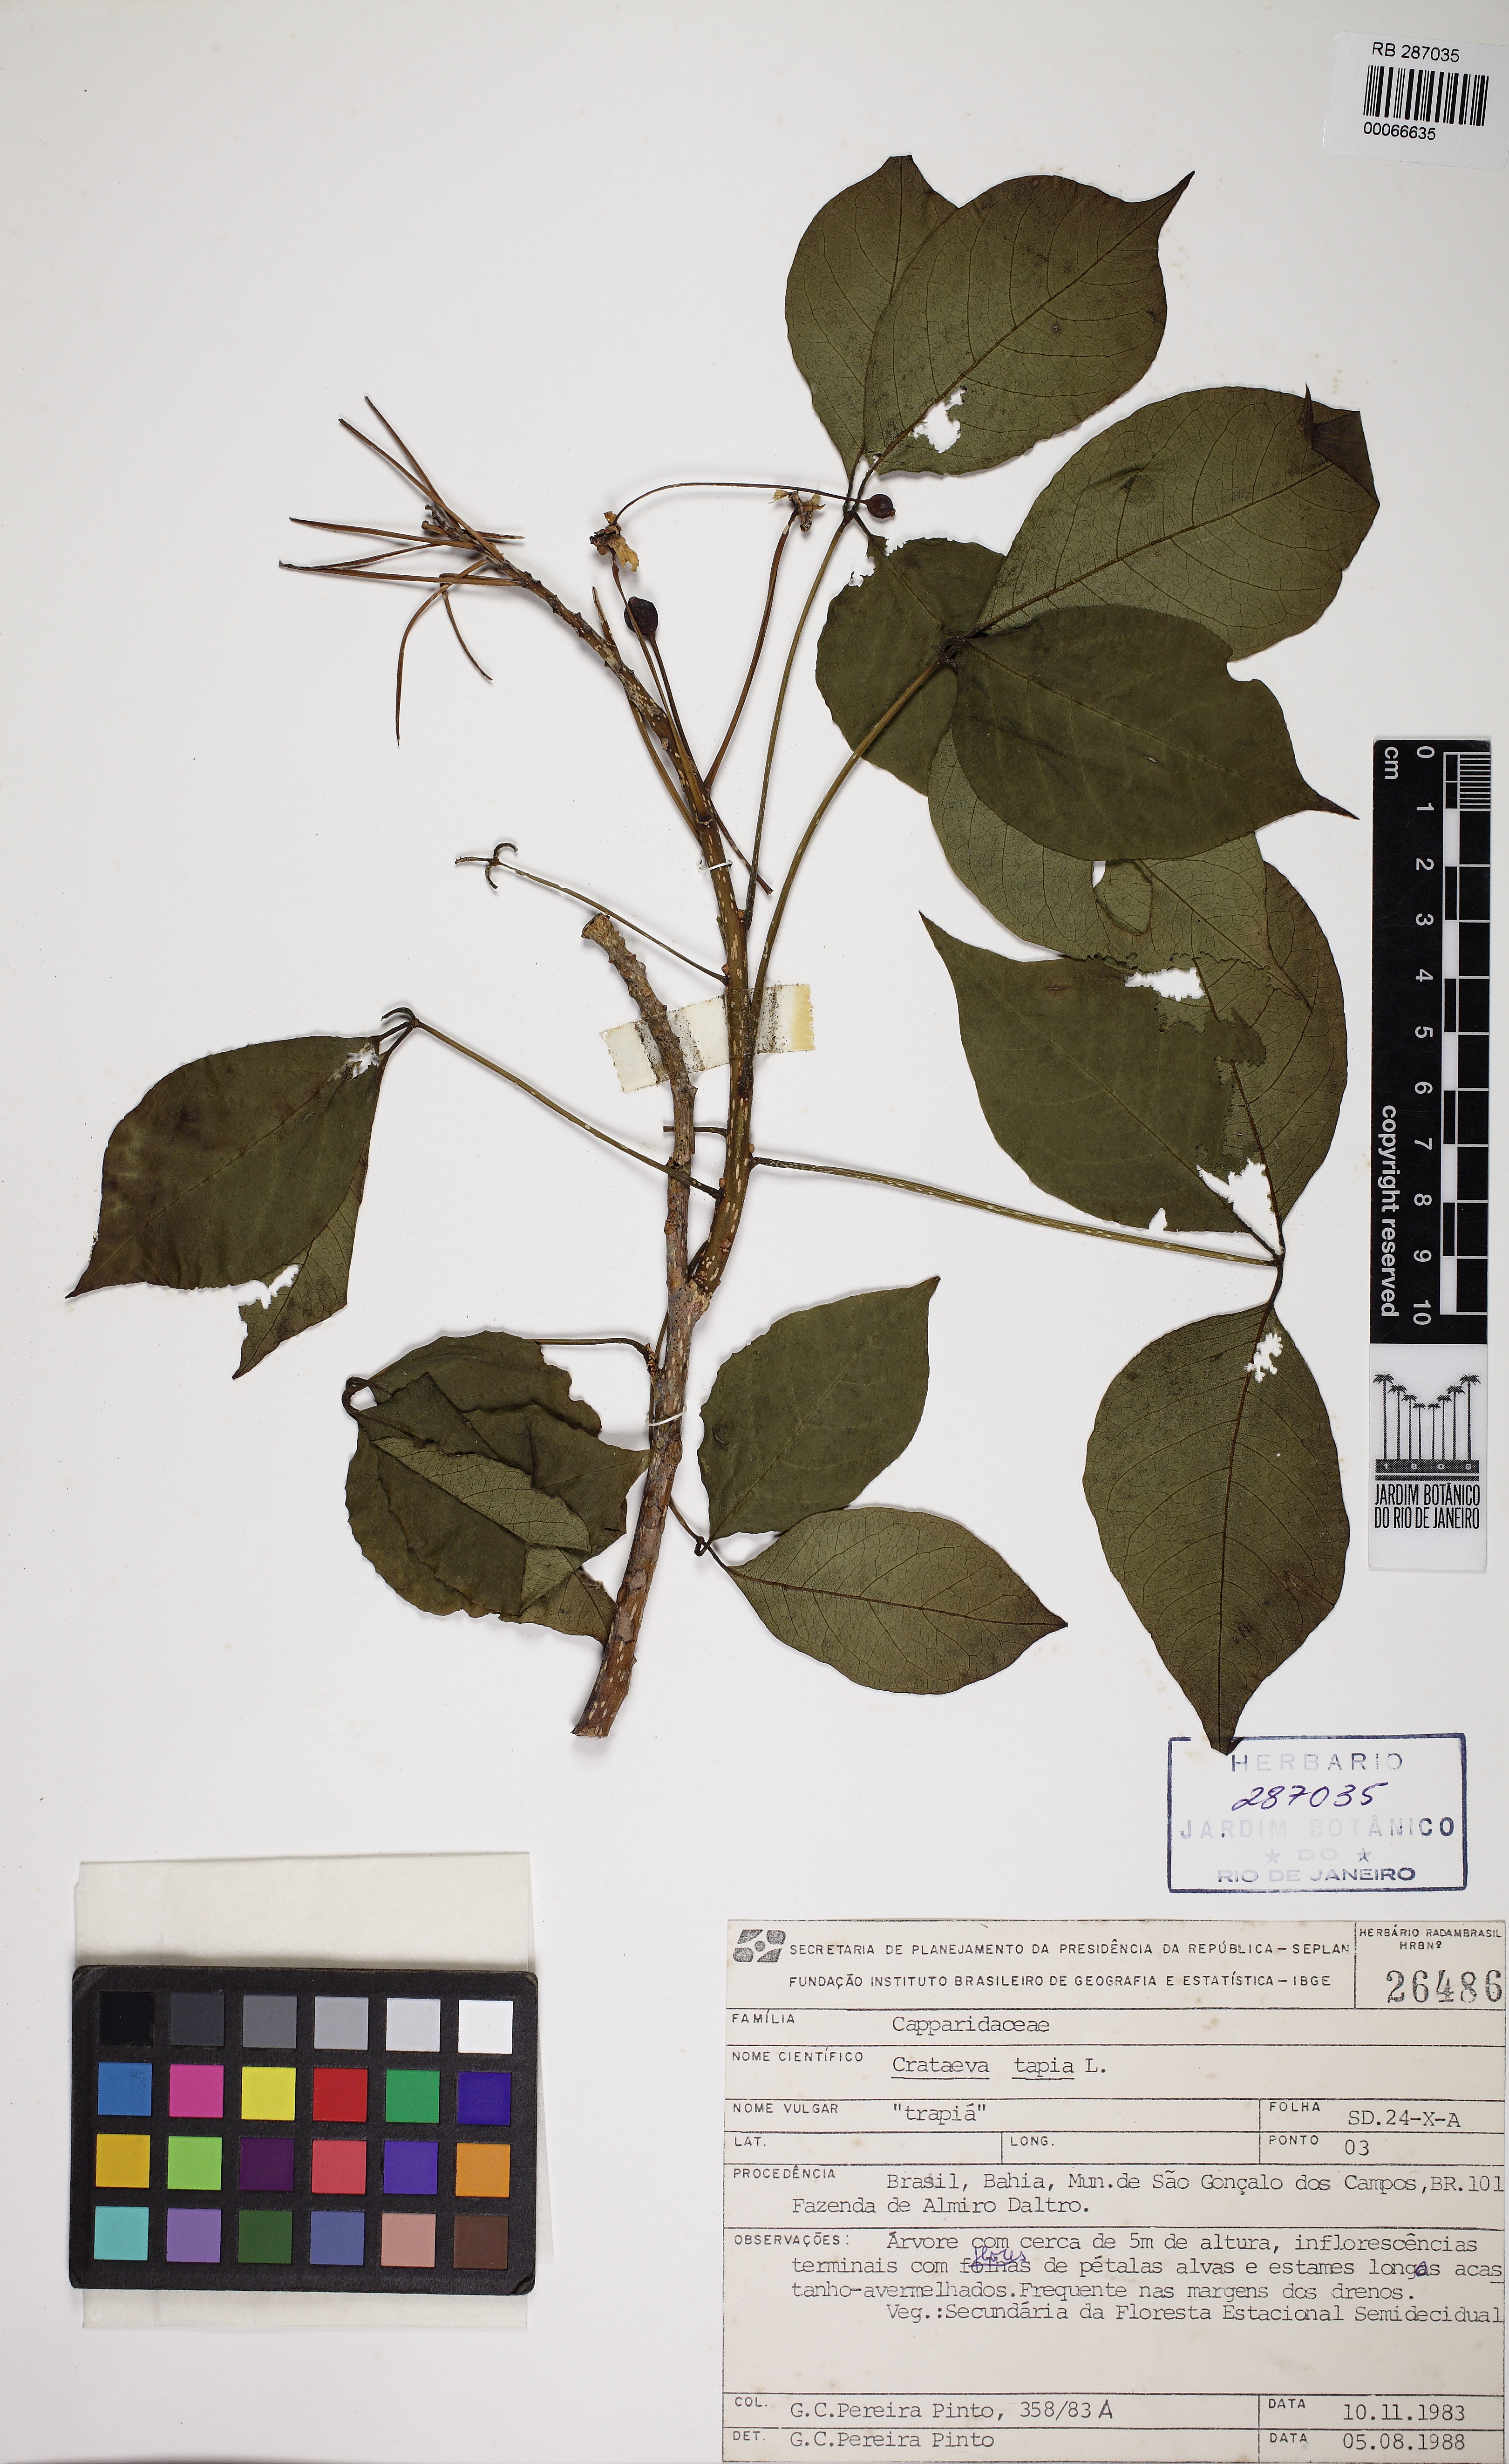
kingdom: Plantae
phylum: Tracheophyta
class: Magnoliopsida
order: Brassicales
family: Capparaceae
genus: Crateva
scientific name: Crateva tapia
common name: Garlic-pear
